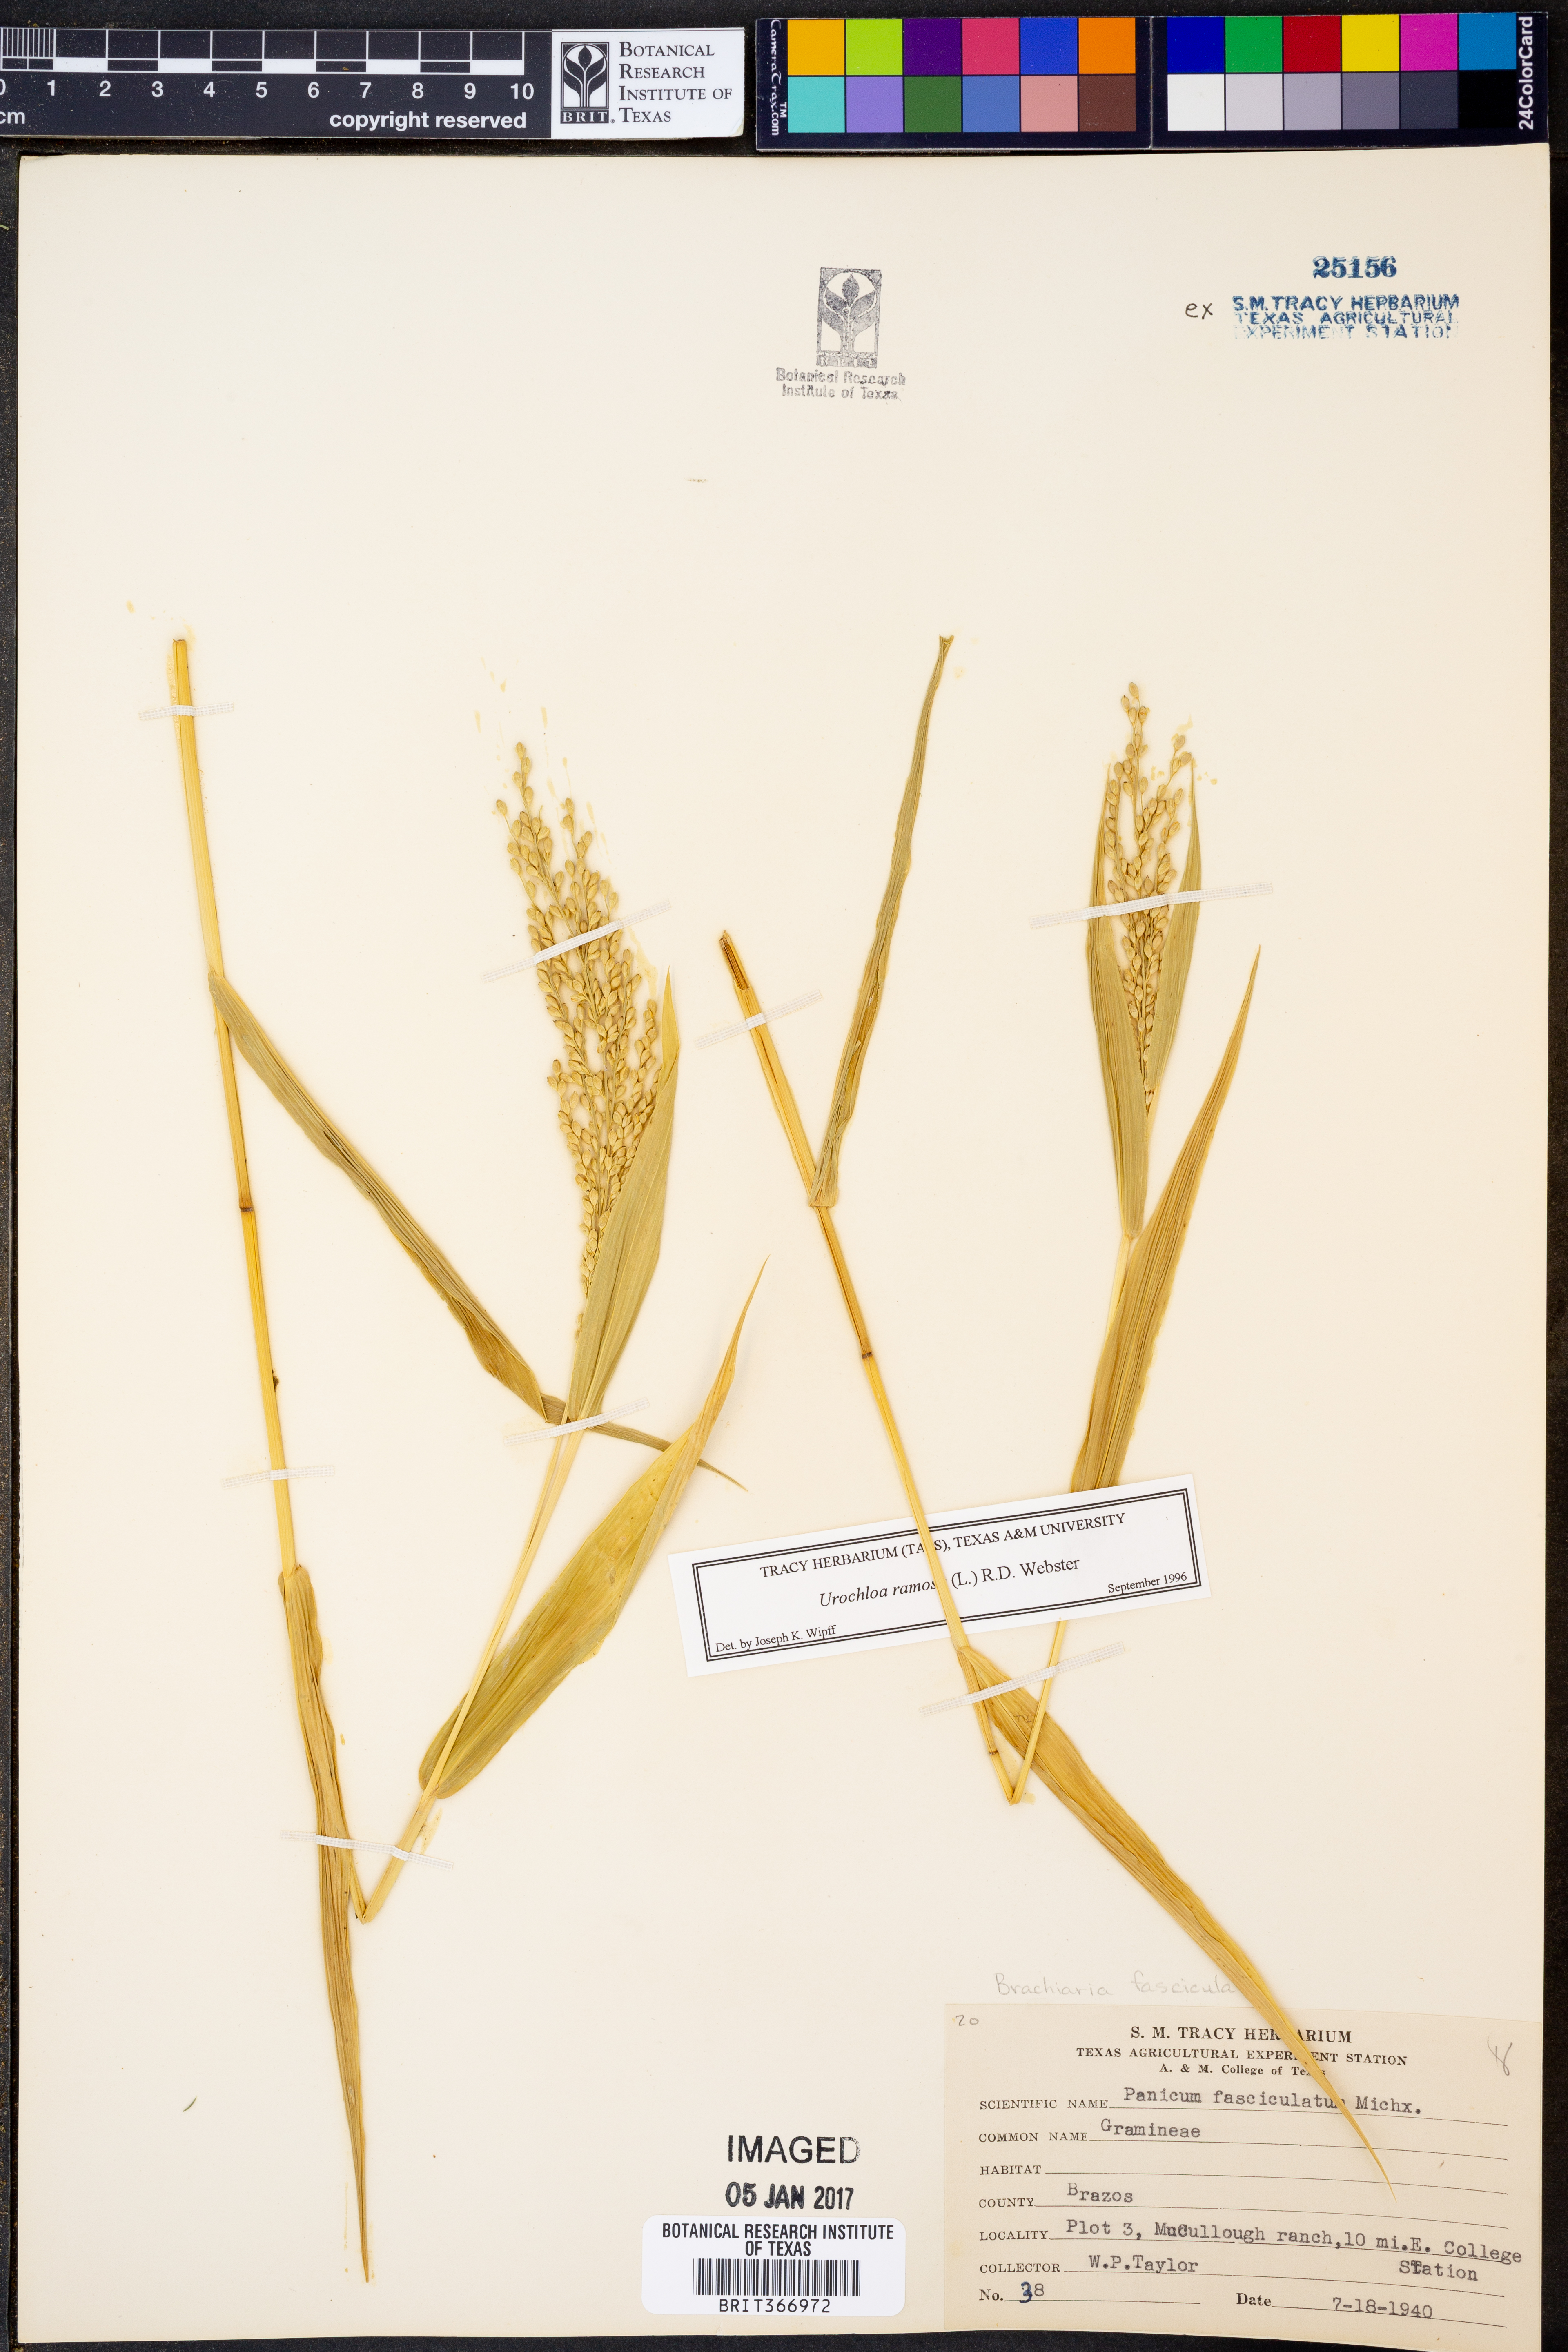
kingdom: Plantae
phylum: Tracheophyta
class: Liliopsida
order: Poales
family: Poaceae
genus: Urochloa
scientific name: Urochloa fusca
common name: Browntop signal grass
